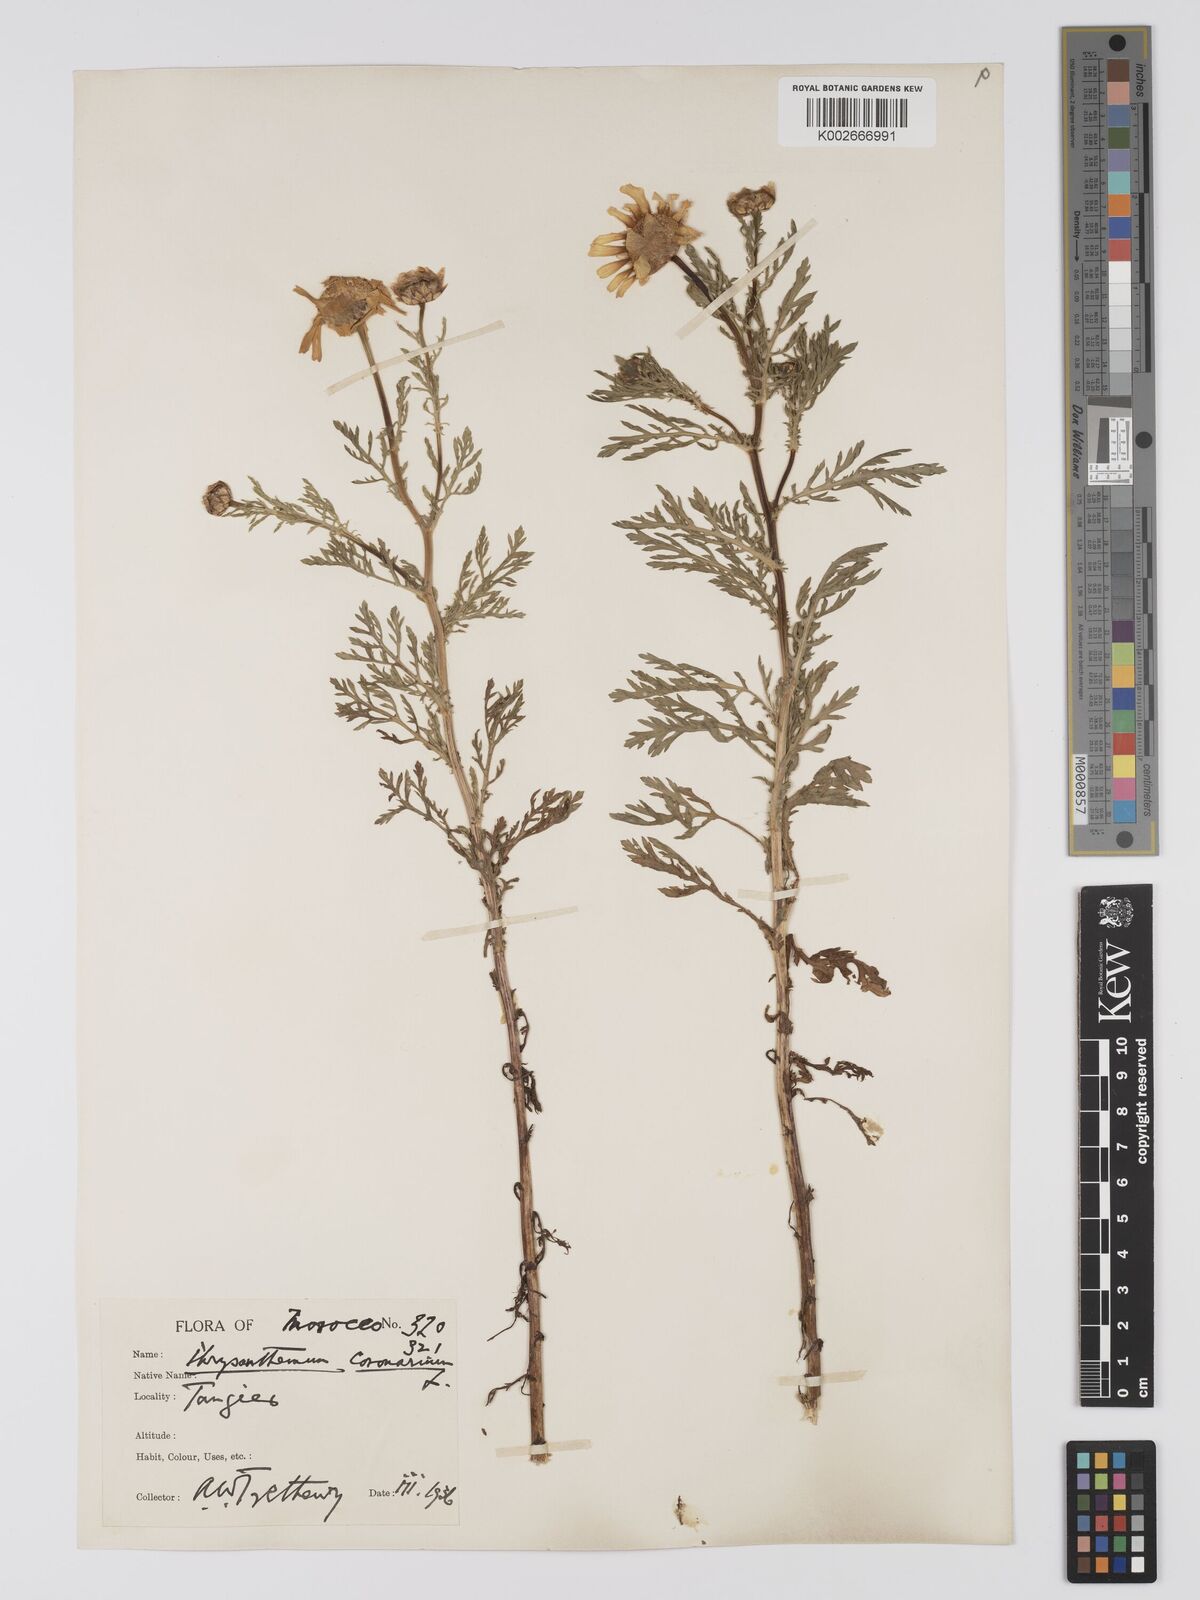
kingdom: Plantae
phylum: Tracheophyta
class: Magnoliopsida
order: Asterales
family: Asteraceae
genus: Glebionis
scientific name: Glebionis coronaria
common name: Crowndaisy
